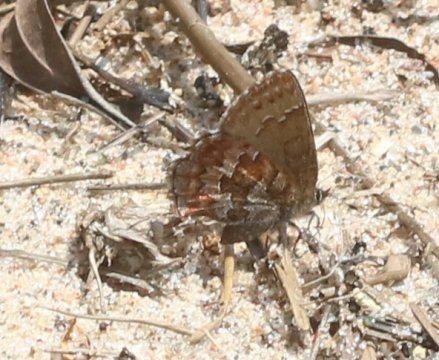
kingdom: Animalia
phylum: Arthropoda
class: Insecta
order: Lepidoptera
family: Lycaenidae
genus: Incisalia
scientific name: Incisalia niphon
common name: Eastern Pine Elfin
